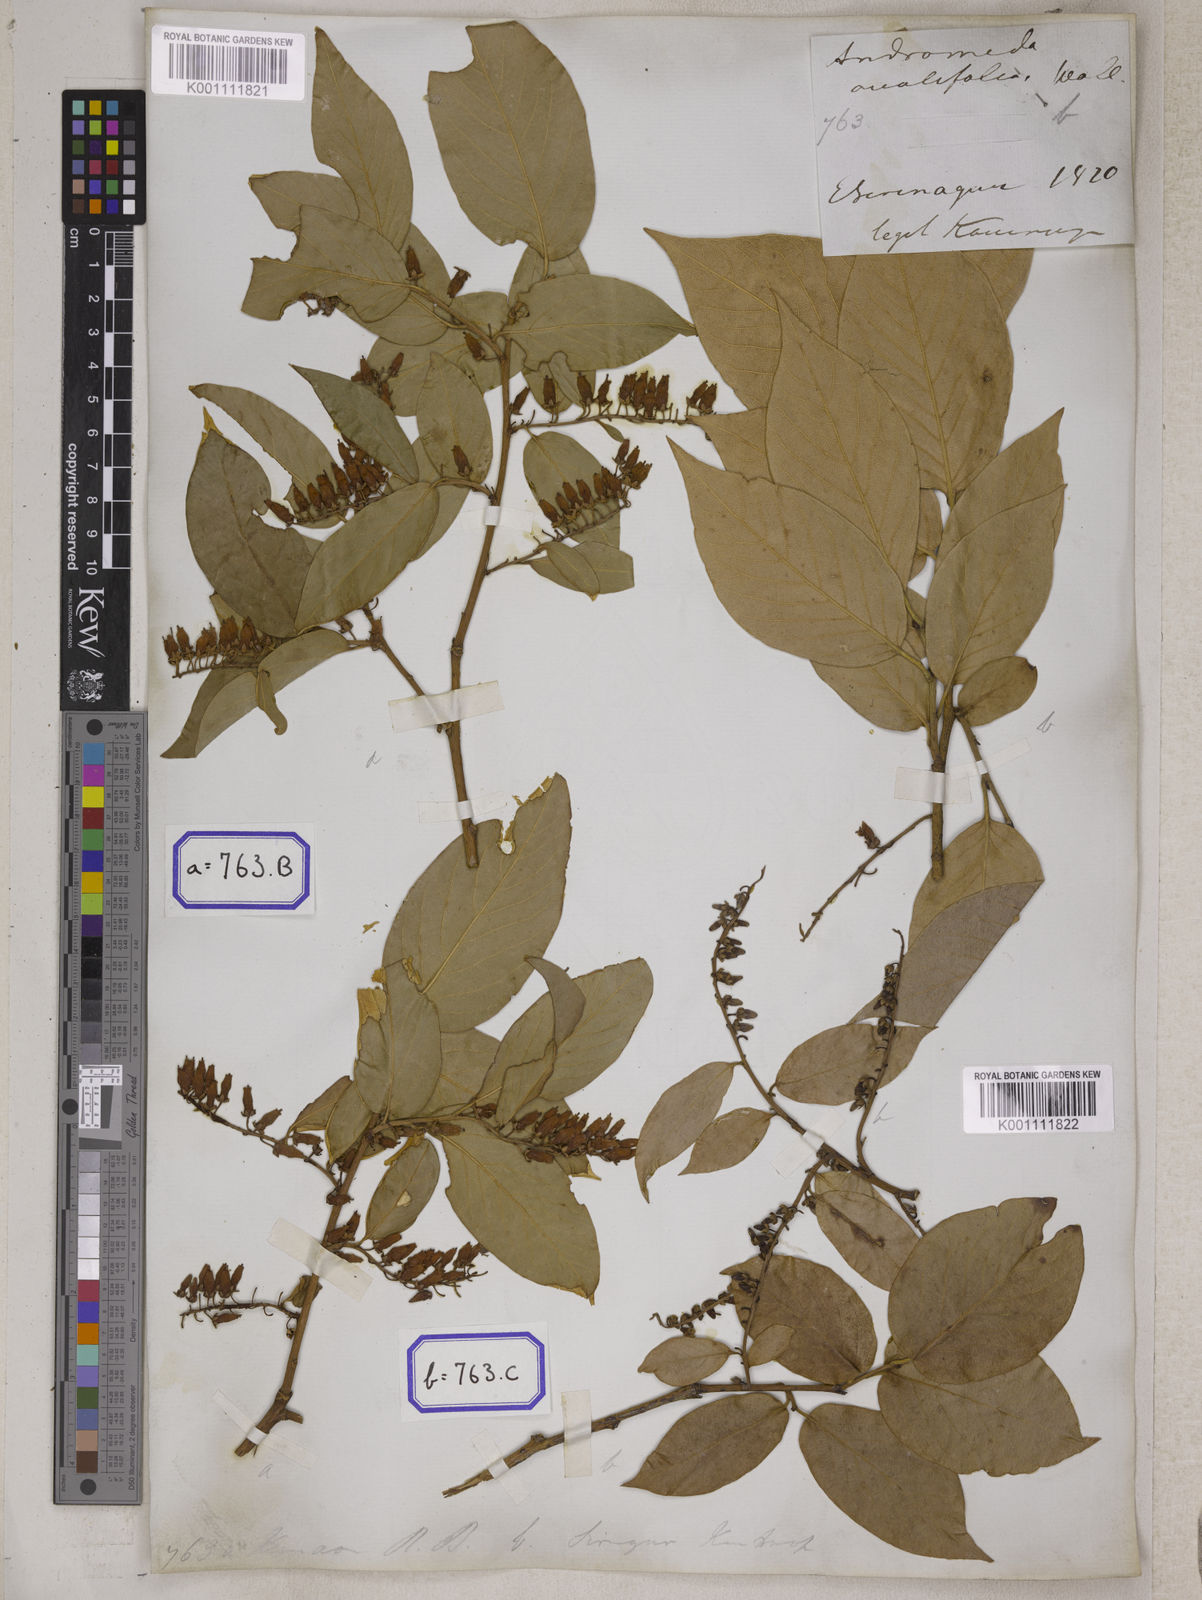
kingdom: Plantae
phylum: Tracheophyta
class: Magnoliopsida
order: Ericales
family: Ericaceae
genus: Lyonia
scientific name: Lyonia ovalifolia
